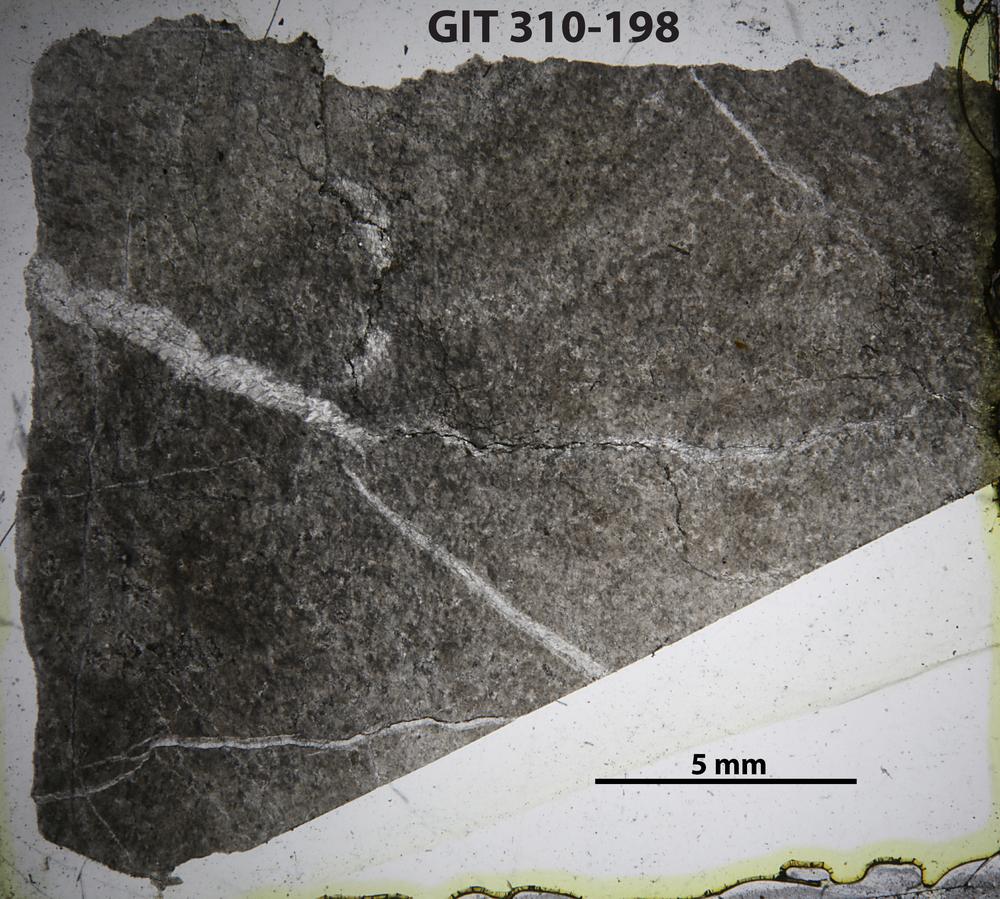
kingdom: Animalia
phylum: Porifera
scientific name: Porifera
